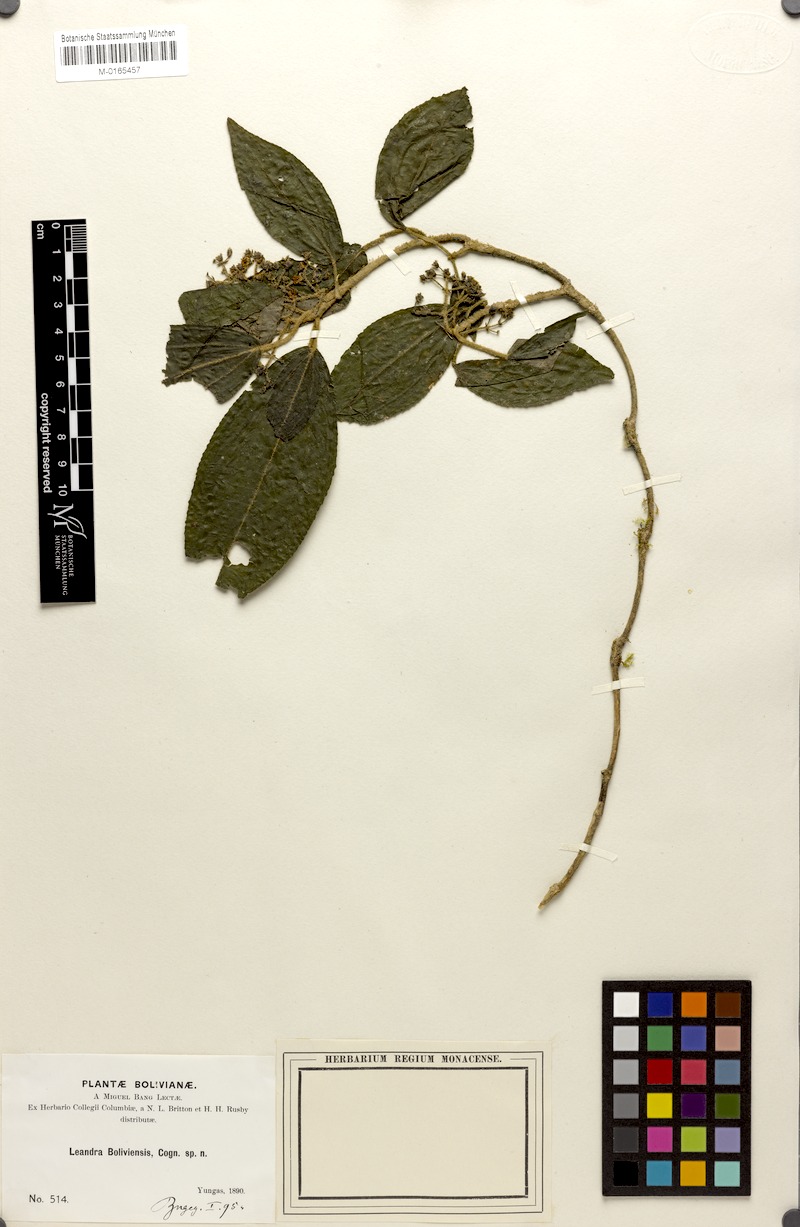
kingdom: Plantae
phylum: Tracheophyta
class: Magnoliopsida
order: Myrtales
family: Melastomataceae
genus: Miconia
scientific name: Miconia yungasensis
